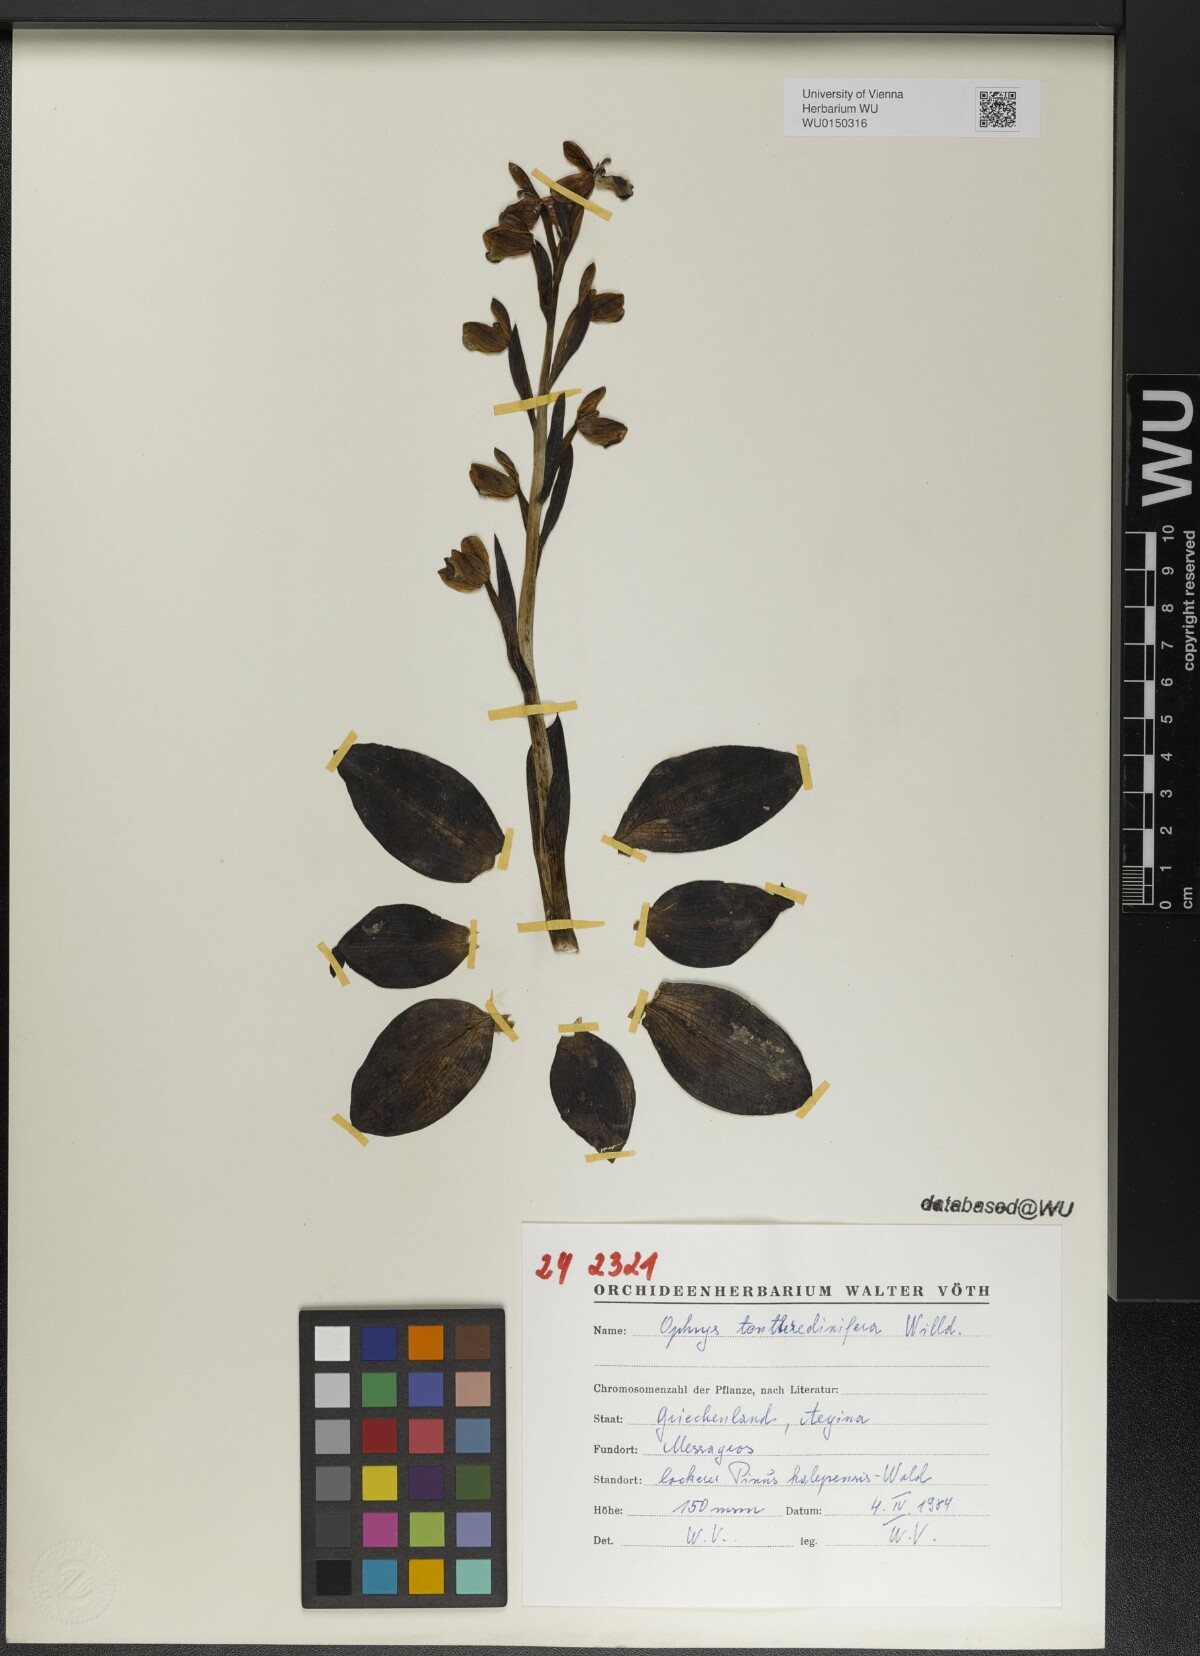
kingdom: Plantae
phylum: Tracheophyta
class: Liliopsida
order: Asparagales
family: Orchidaceae
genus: Ophrys
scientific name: Ophrys tenthredinifera
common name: Sawfly orchid
